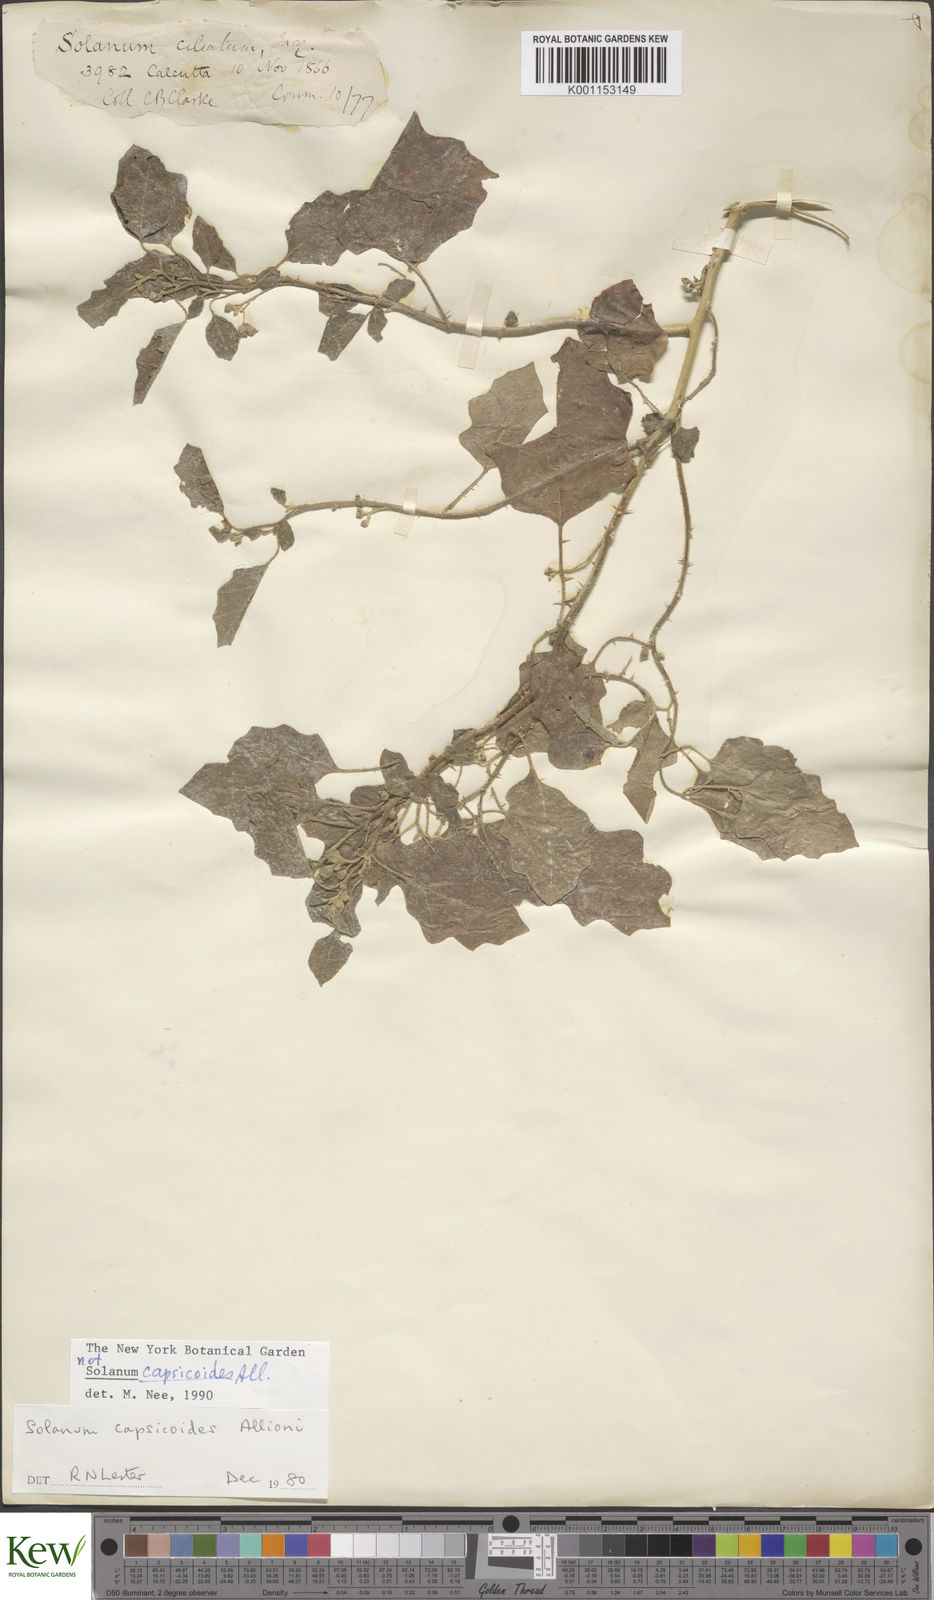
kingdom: Plantae
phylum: Tracheophyta
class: Magnoliopsida
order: Solanales
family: Solanaceae
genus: Solanum
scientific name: Solanum capsicoides
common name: Cockroach berry
